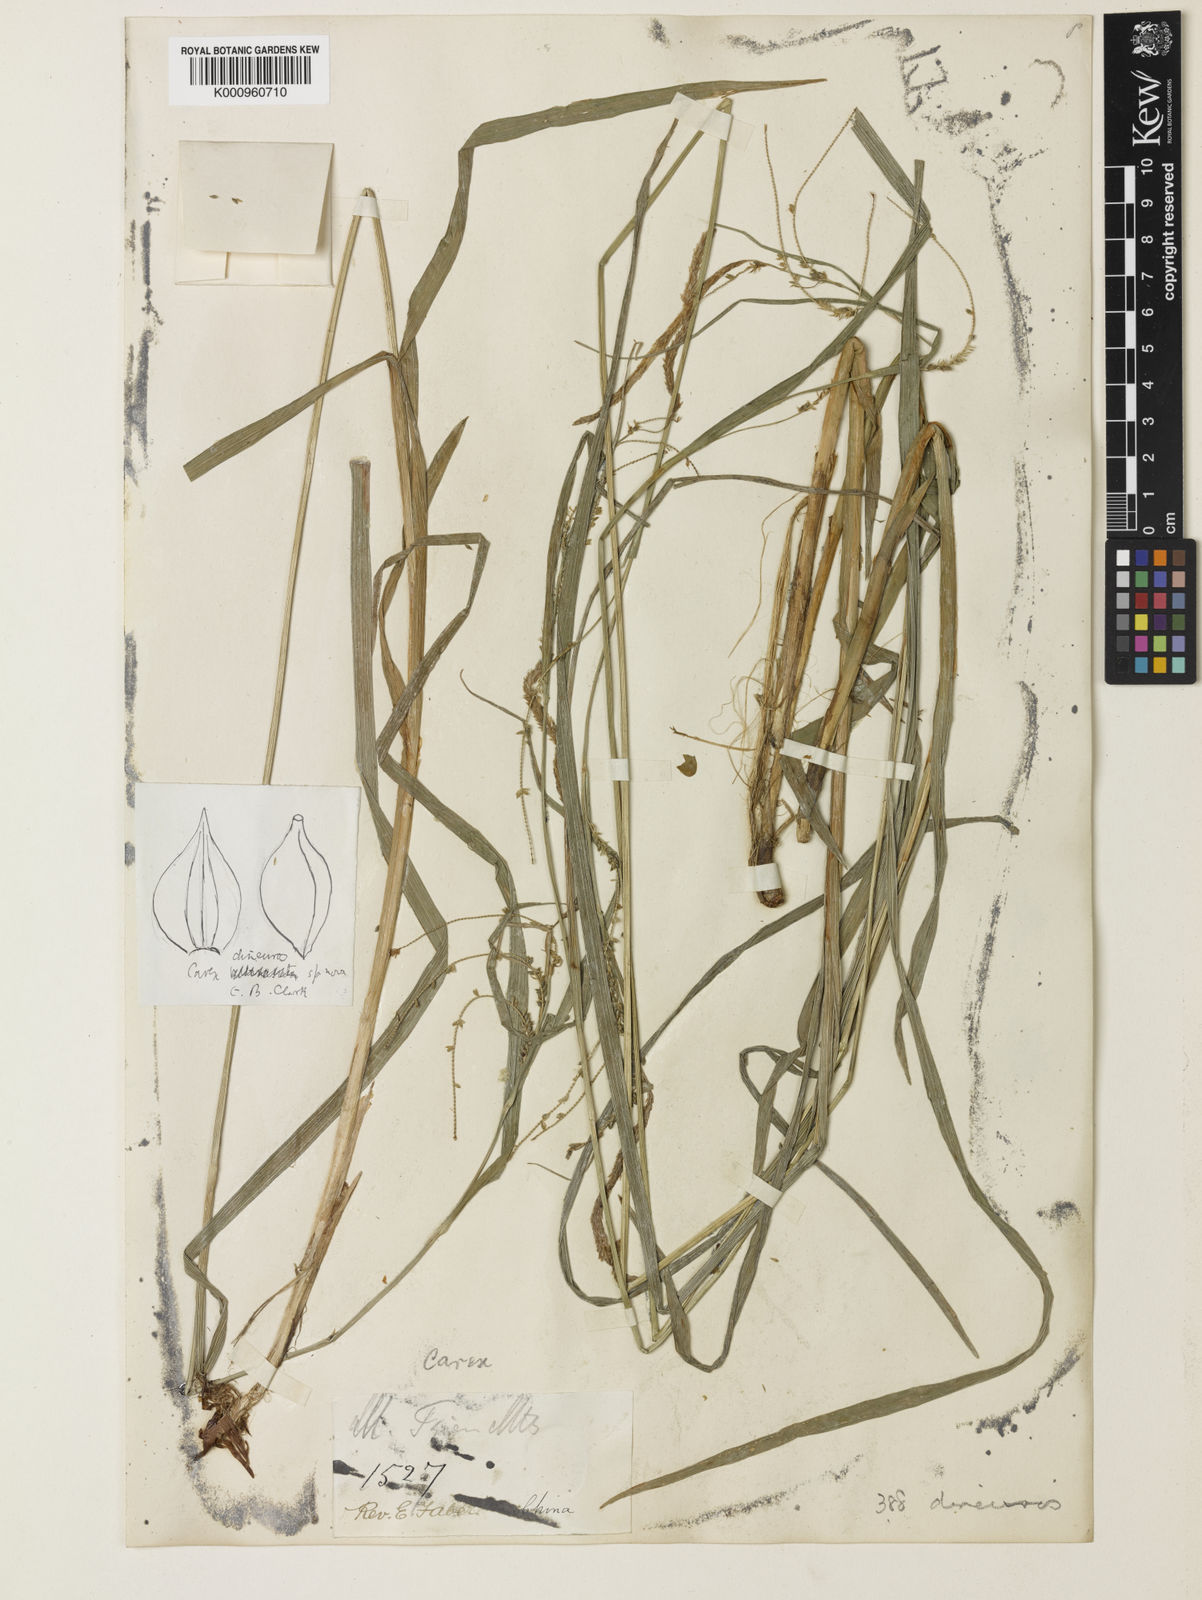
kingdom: Plantae
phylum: Tracheophyta
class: Liliopsida
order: Poales
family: Cyperaceae
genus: Carex
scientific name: Carex jaluensis
